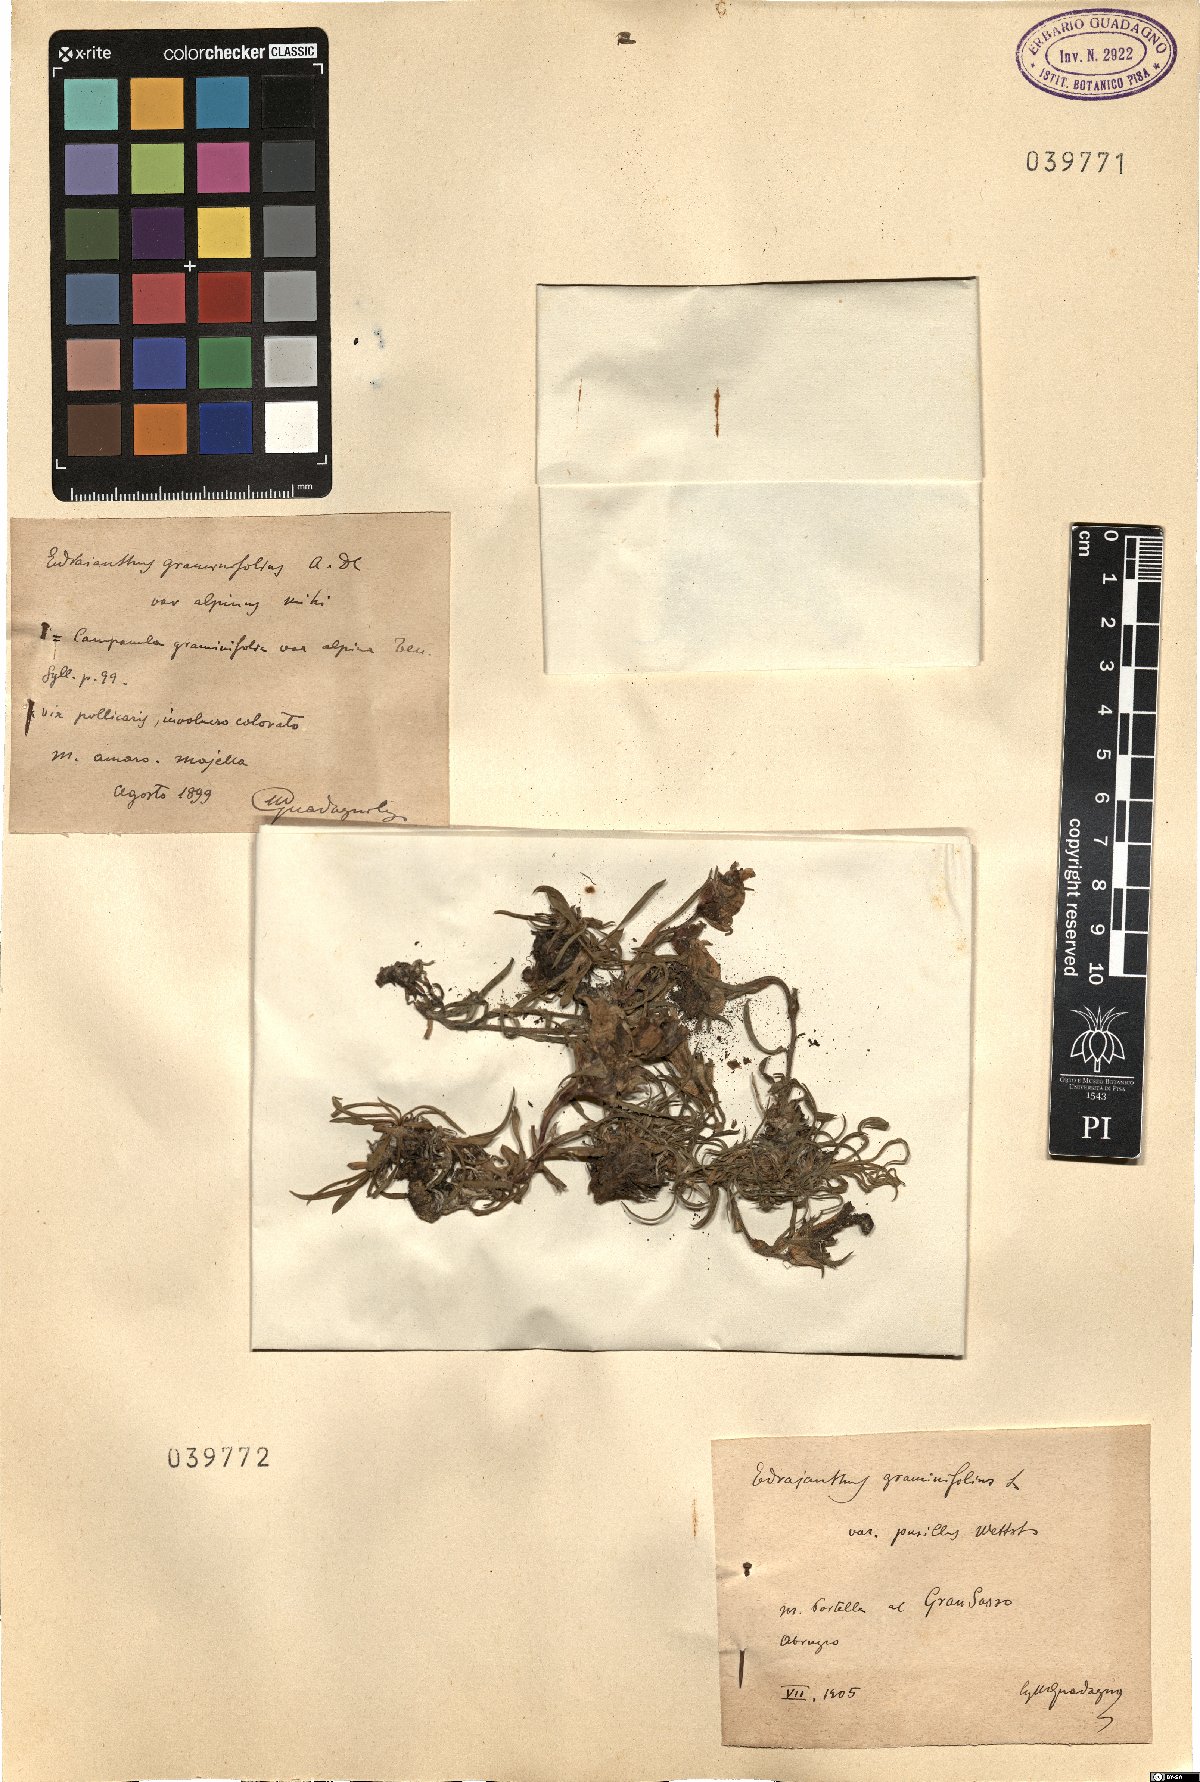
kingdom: Plantae
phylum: Tracheophyta
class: Magnoliopsida
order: Asterales
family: Campanulaceae
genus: Edraianthus
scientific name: Edraianthus graminifolius
